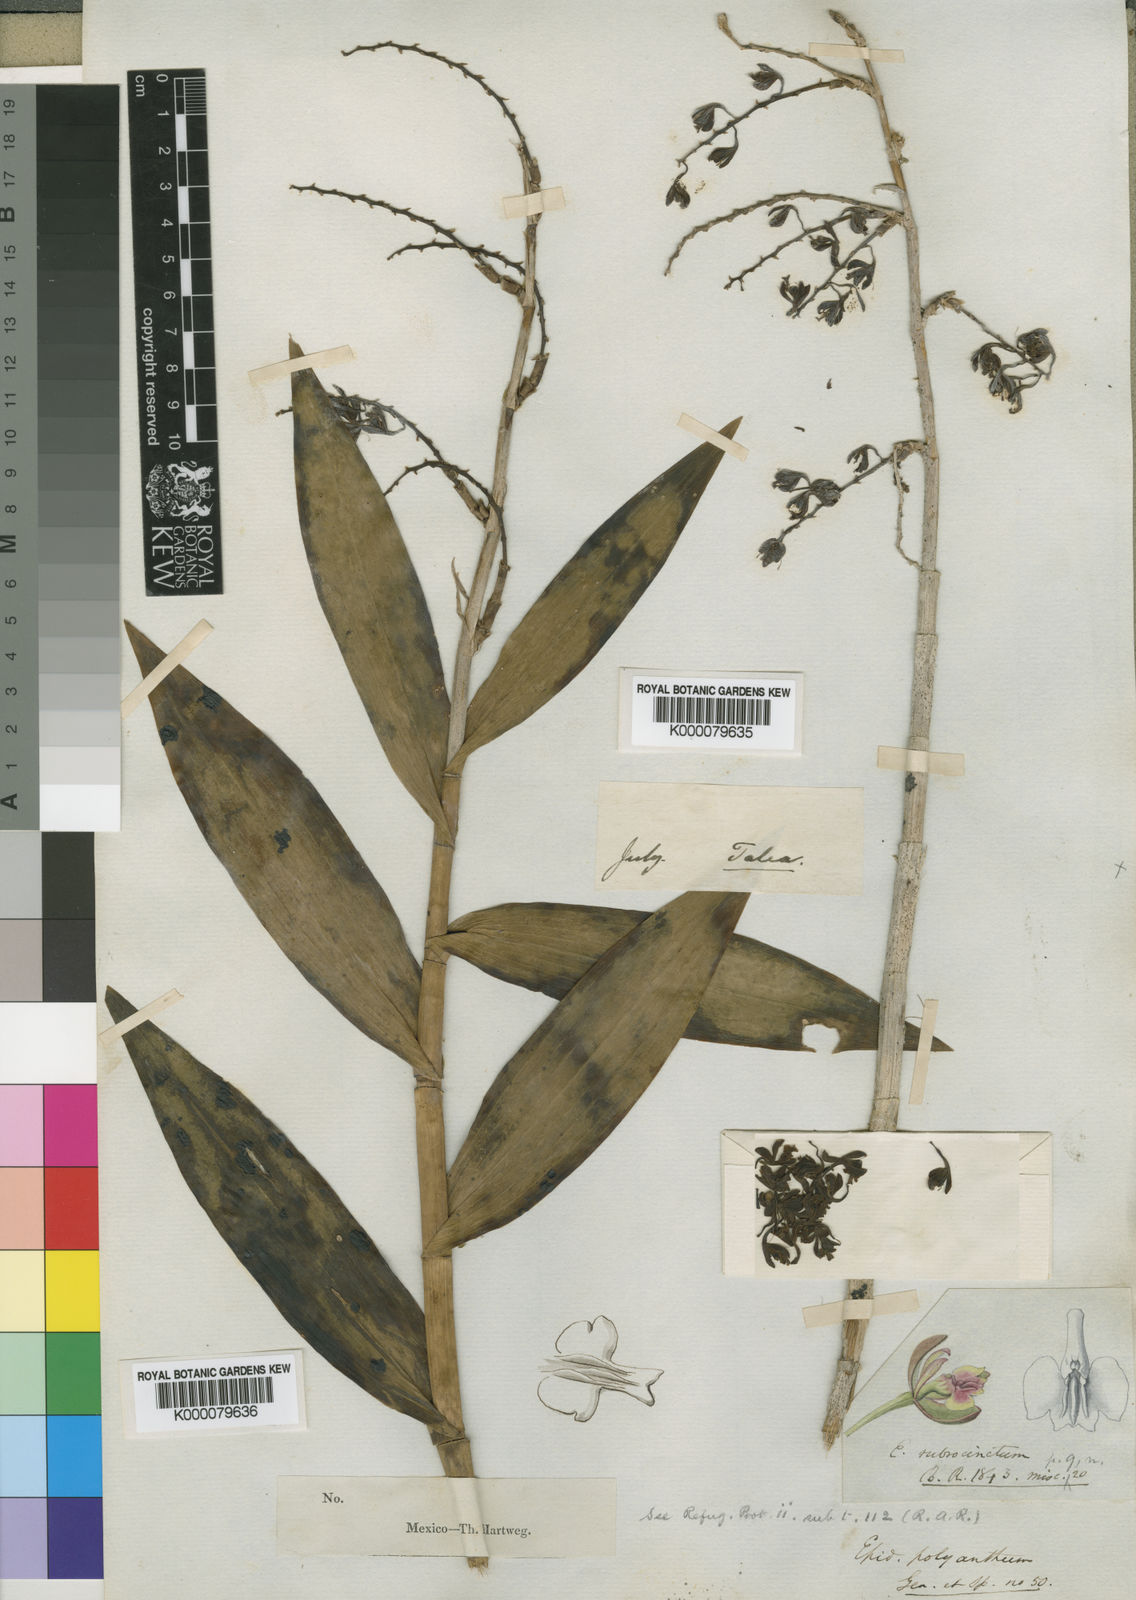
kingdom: Plantae
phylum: Tracheophyta
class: Liliopsida
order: Asparagales
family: Orchidaceae
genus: Epidendrum
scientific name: Epidendrum polyanthum
